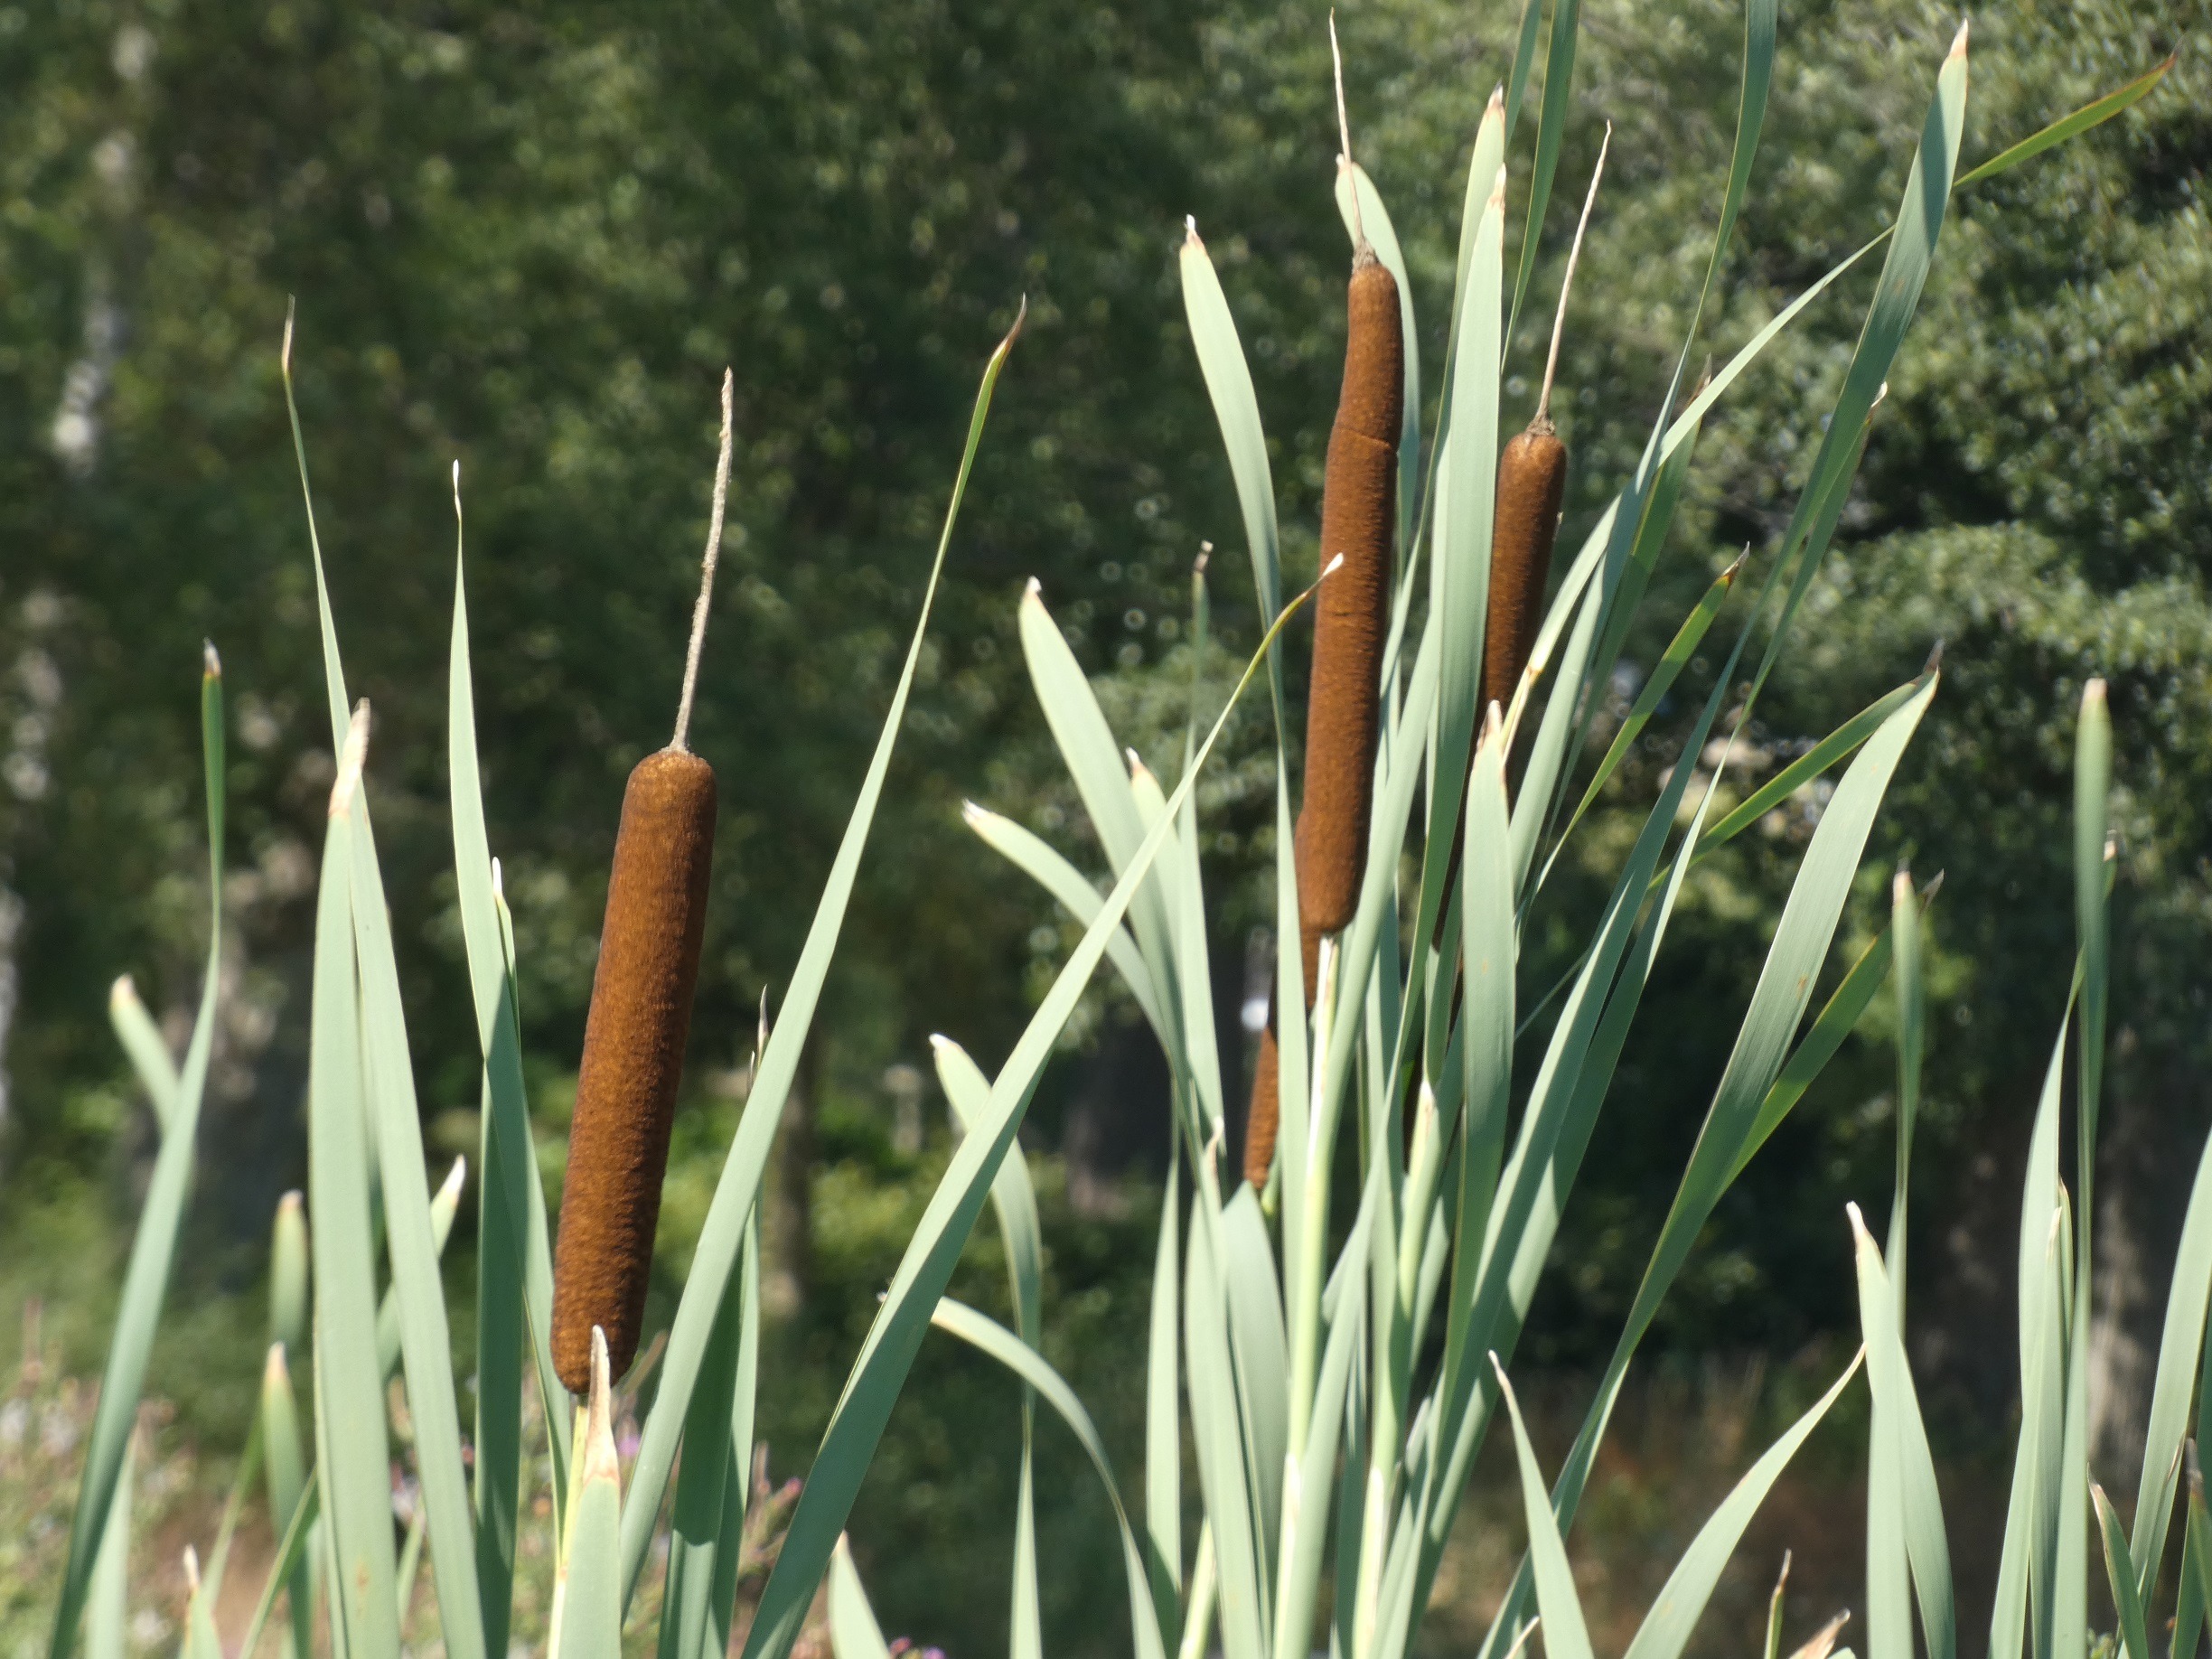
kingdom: Plantae
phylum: Tracheophyta
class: Liliopsida
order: Poales
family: Typhaceae
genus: Typha
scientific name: Typha latifolia
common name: Bredbladet dunhammer
